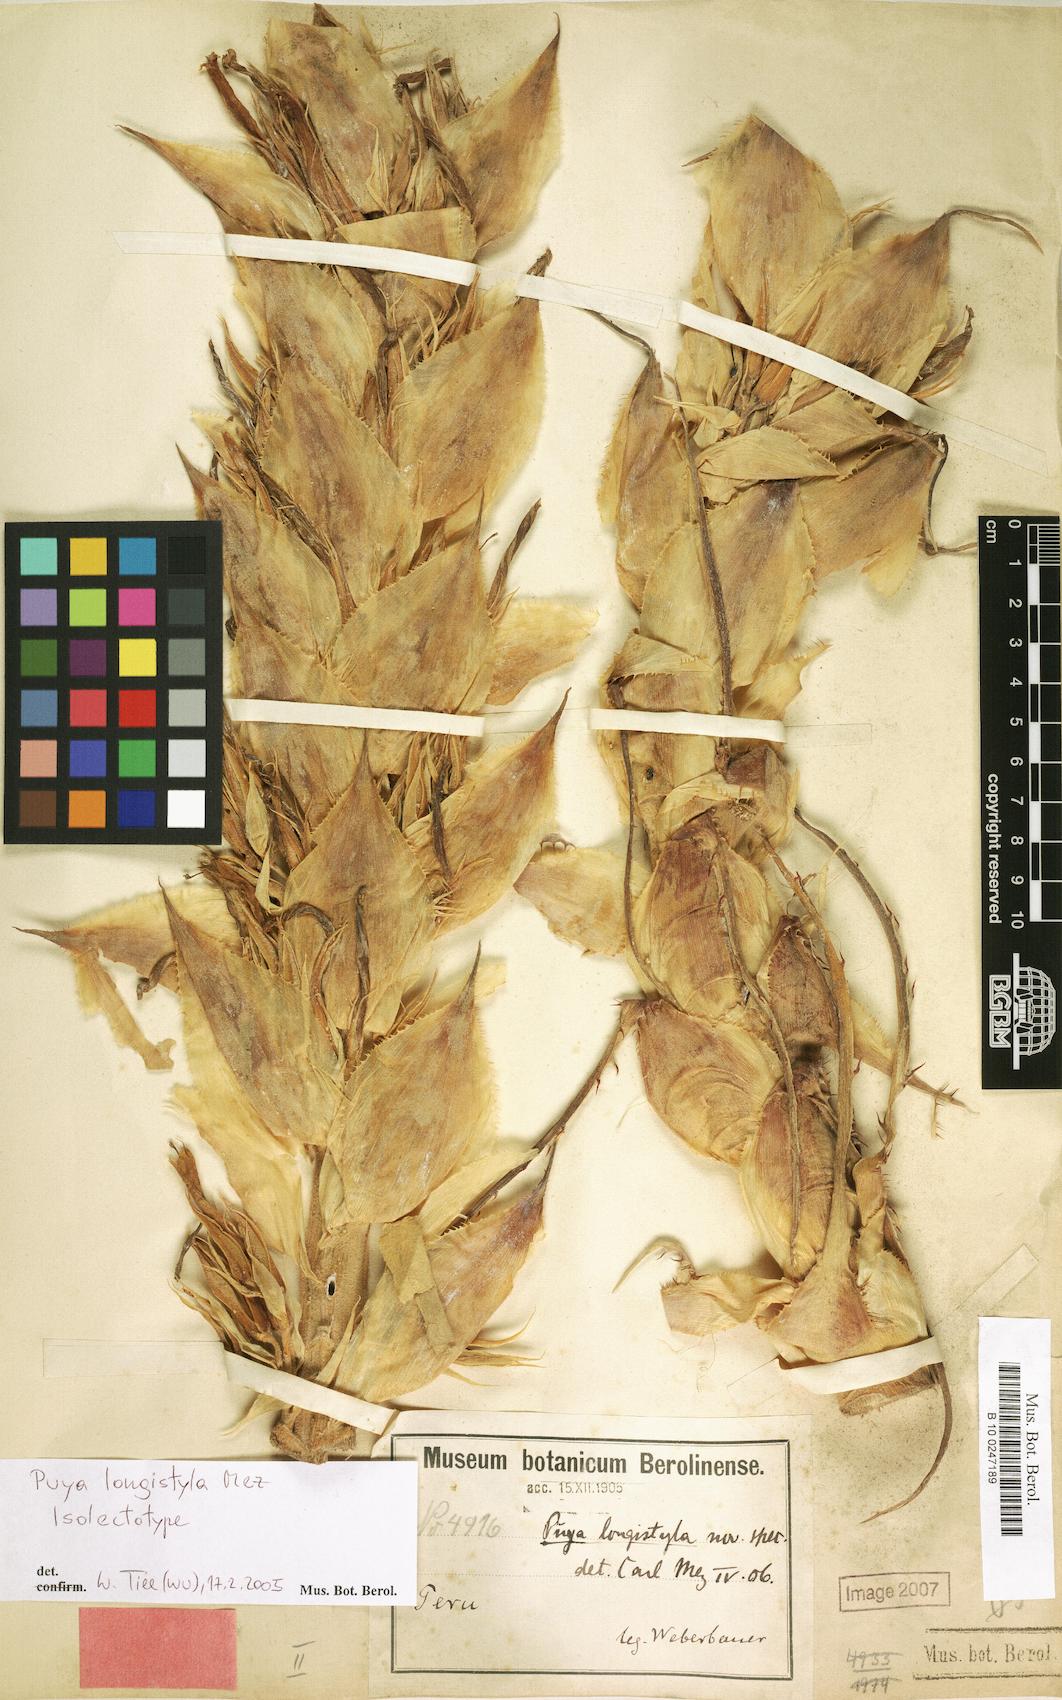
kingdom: Plantae
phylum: Tracheophyta
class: Liliopsida
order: Poales
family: Bromeliaceae
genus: Puya
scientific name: Puya longistyla
